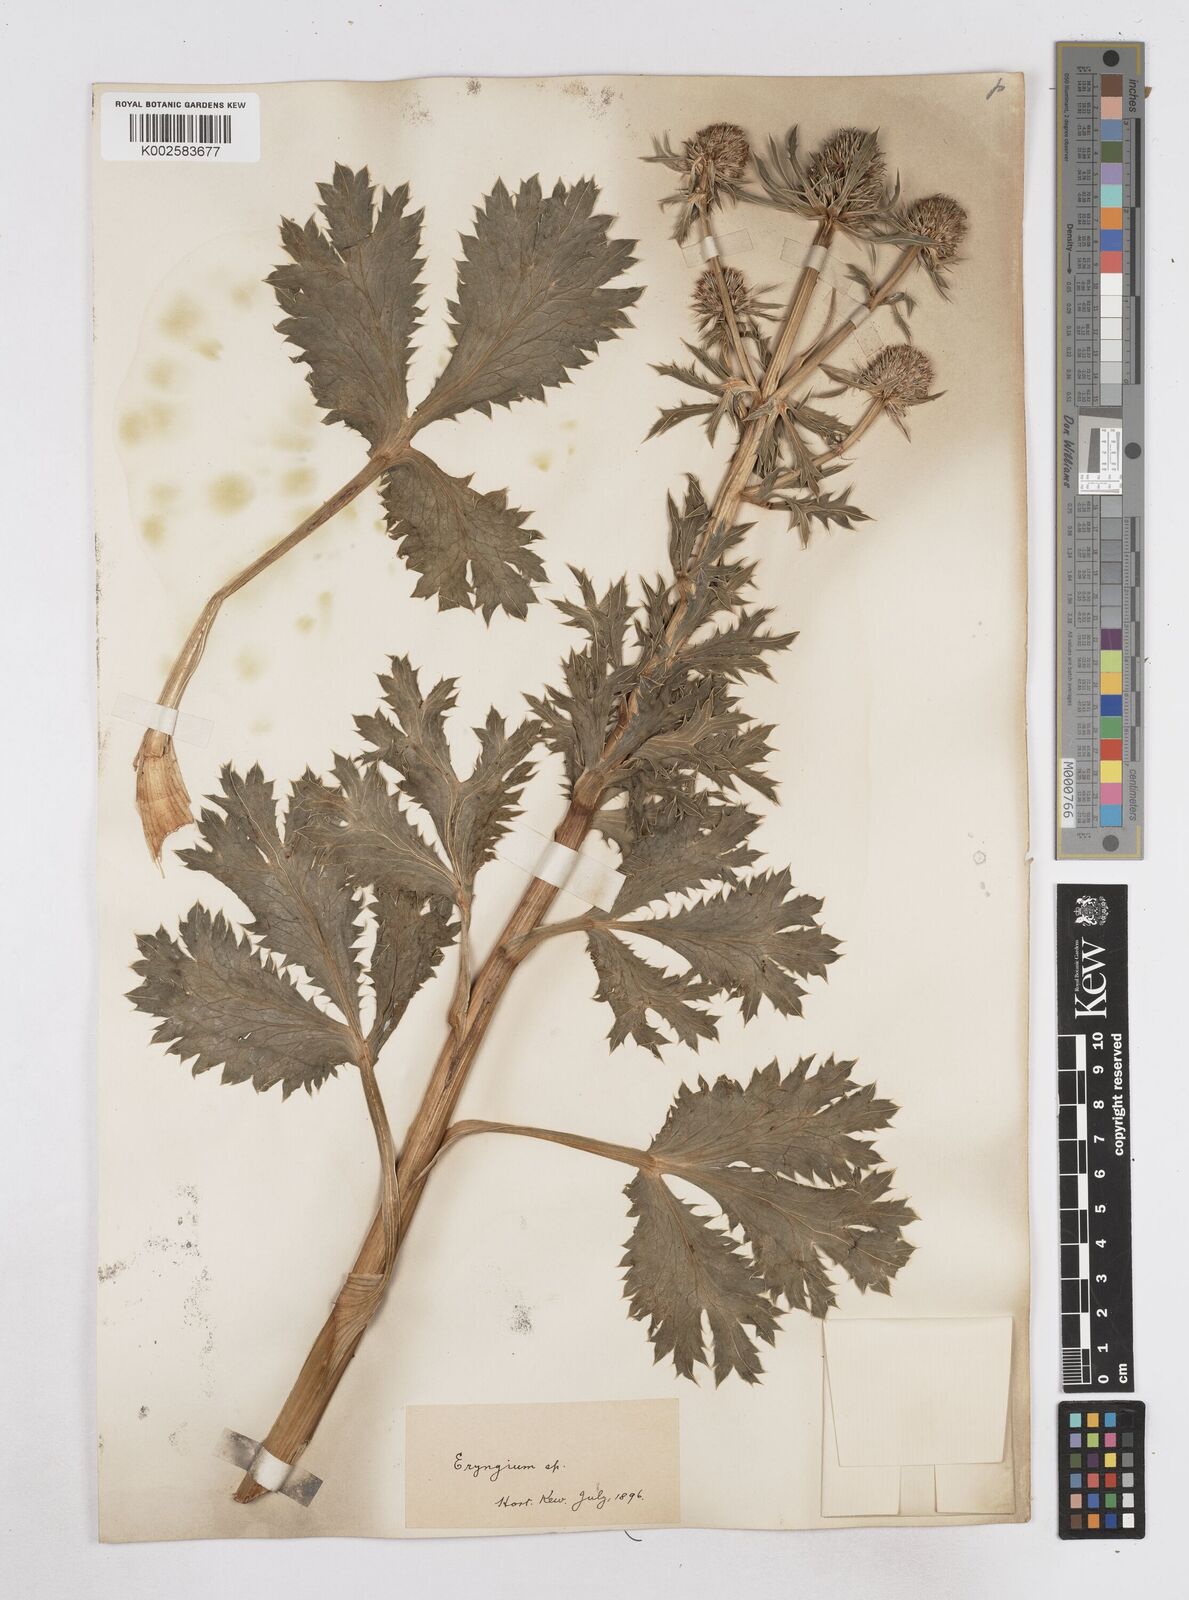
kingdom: Plantae
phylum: Tracheophyta
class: Magnoliopsida
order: Apiales
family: Apiaceae
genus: Eryngium
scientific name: Eryngium
